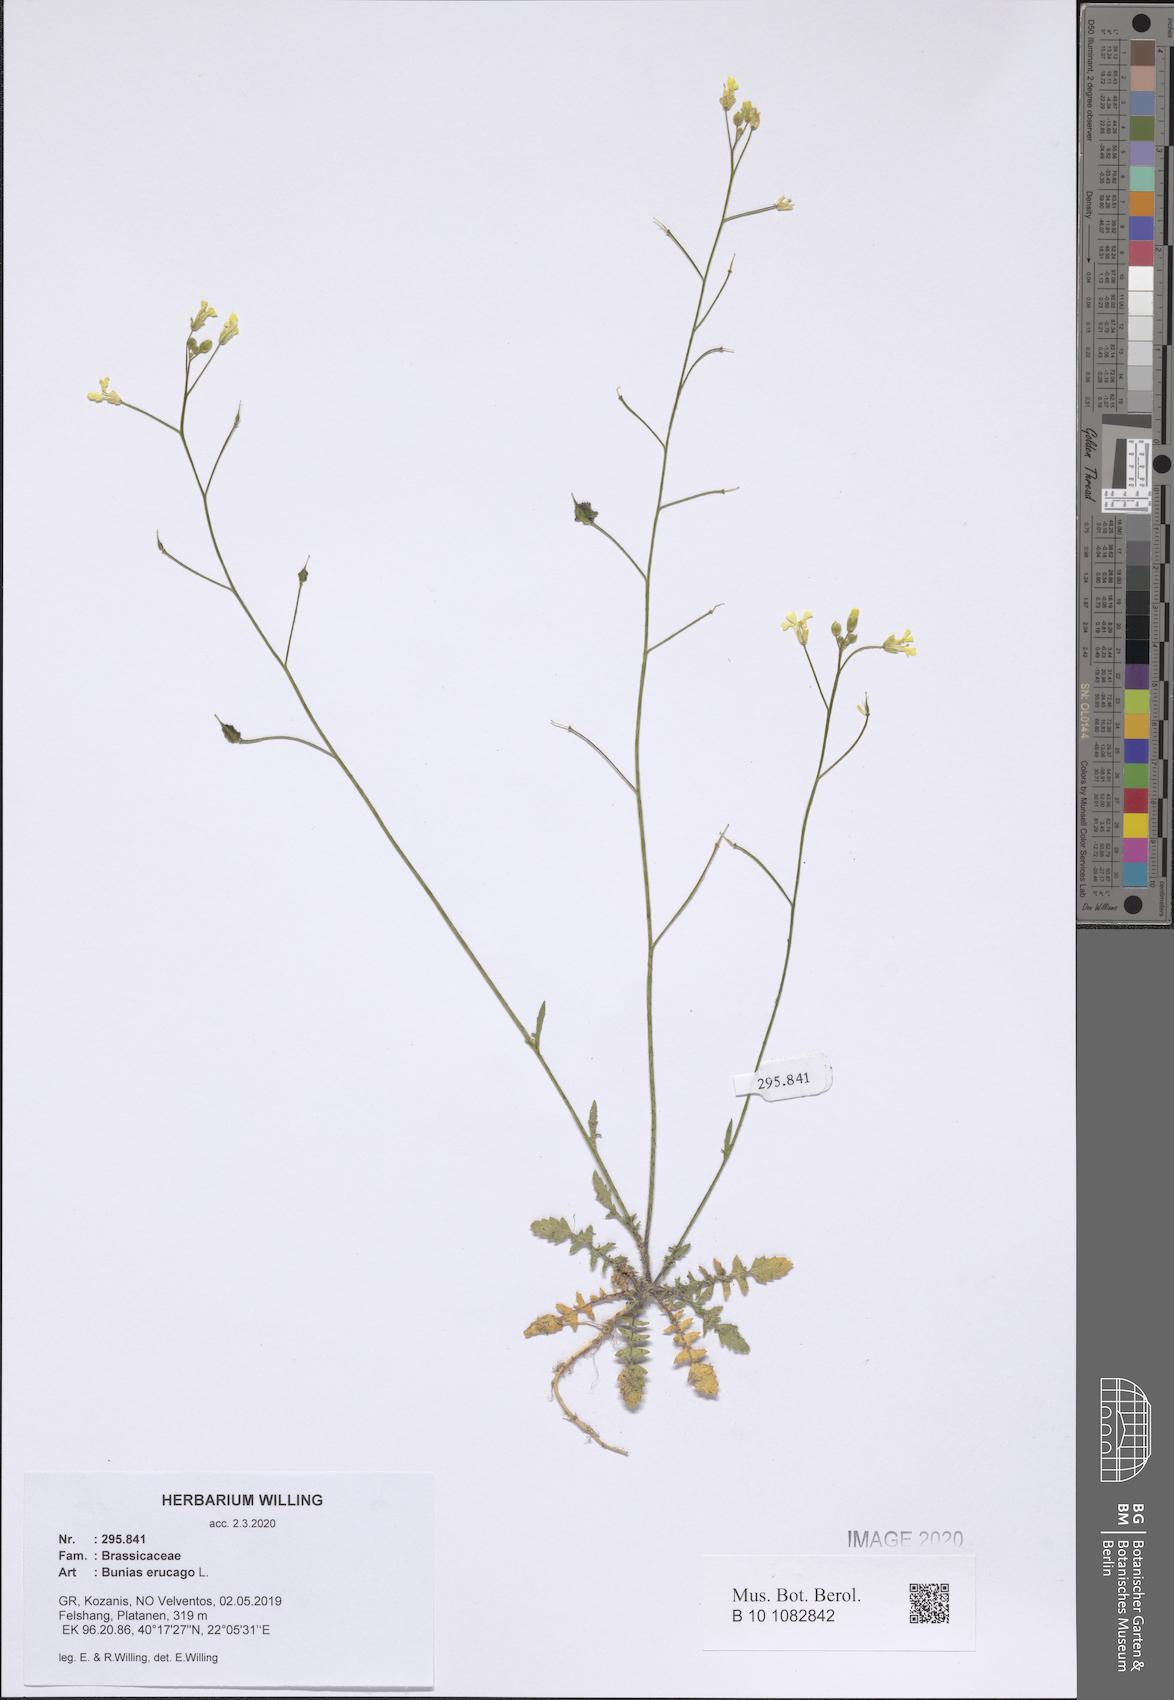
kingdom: Plantae
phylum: Tracheophyta
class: Magnoliopsida
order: Brassicales
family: Brassicaceae
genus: Bunias
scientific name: Bunias erucago
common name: Southern warty-cabbage
